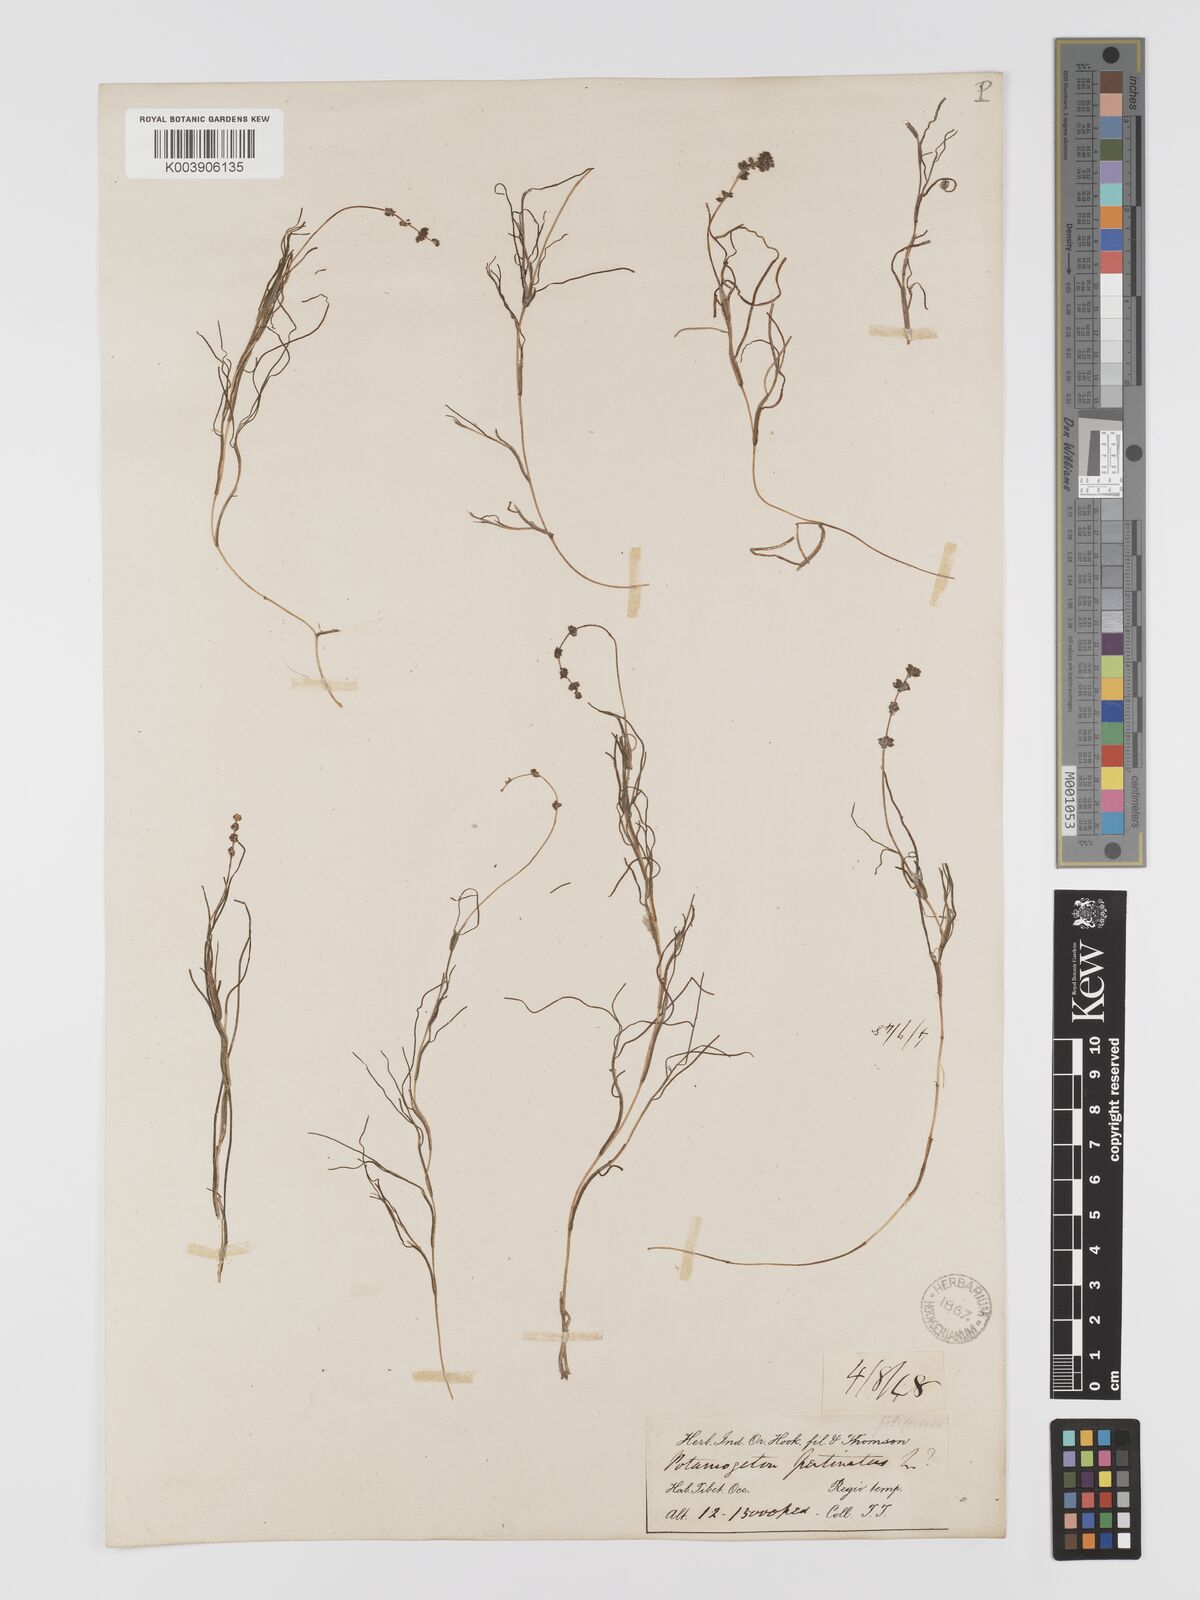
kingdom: Plantae
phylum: Tracheophyta
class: Liliopsida
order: Alismatales
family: Potamogetonaceae
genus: Stuckenia
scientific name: Stuckenia pectinata
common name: Sago pondweed
